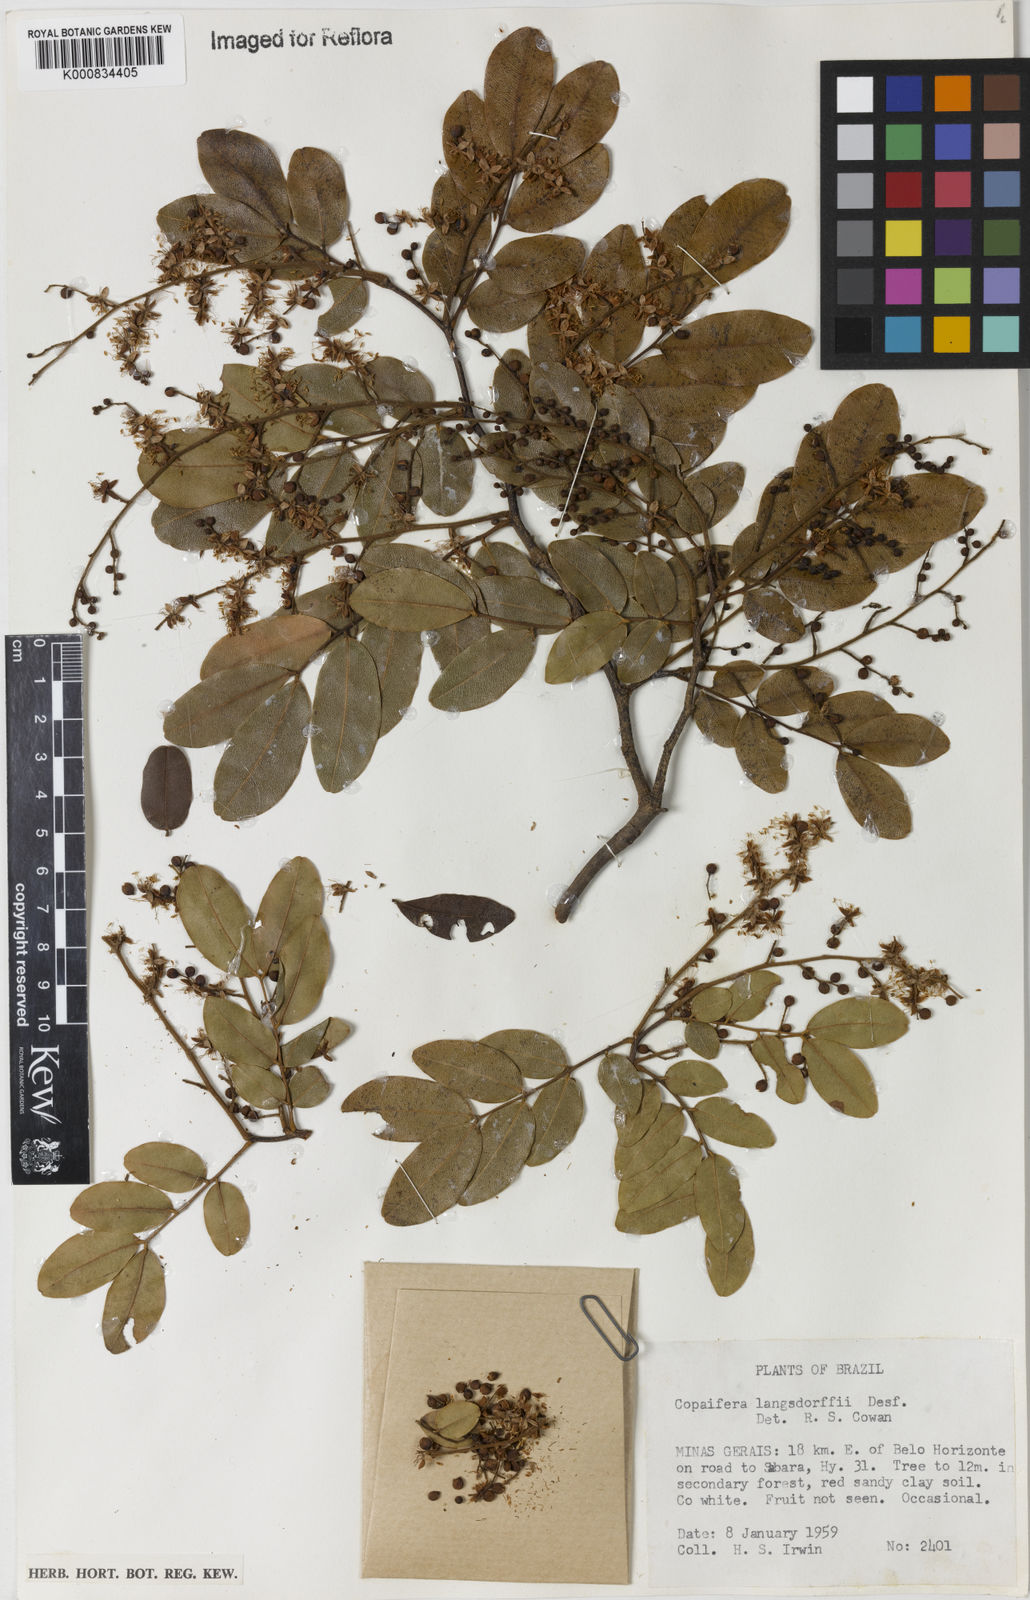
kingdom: Plantae
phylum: Tracheophyta
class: Magnoliopsida
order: Fabales
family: Fabaceae
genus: Copaifera
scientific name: Copaifera langsdorffii
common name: Brazilian diesel tree
